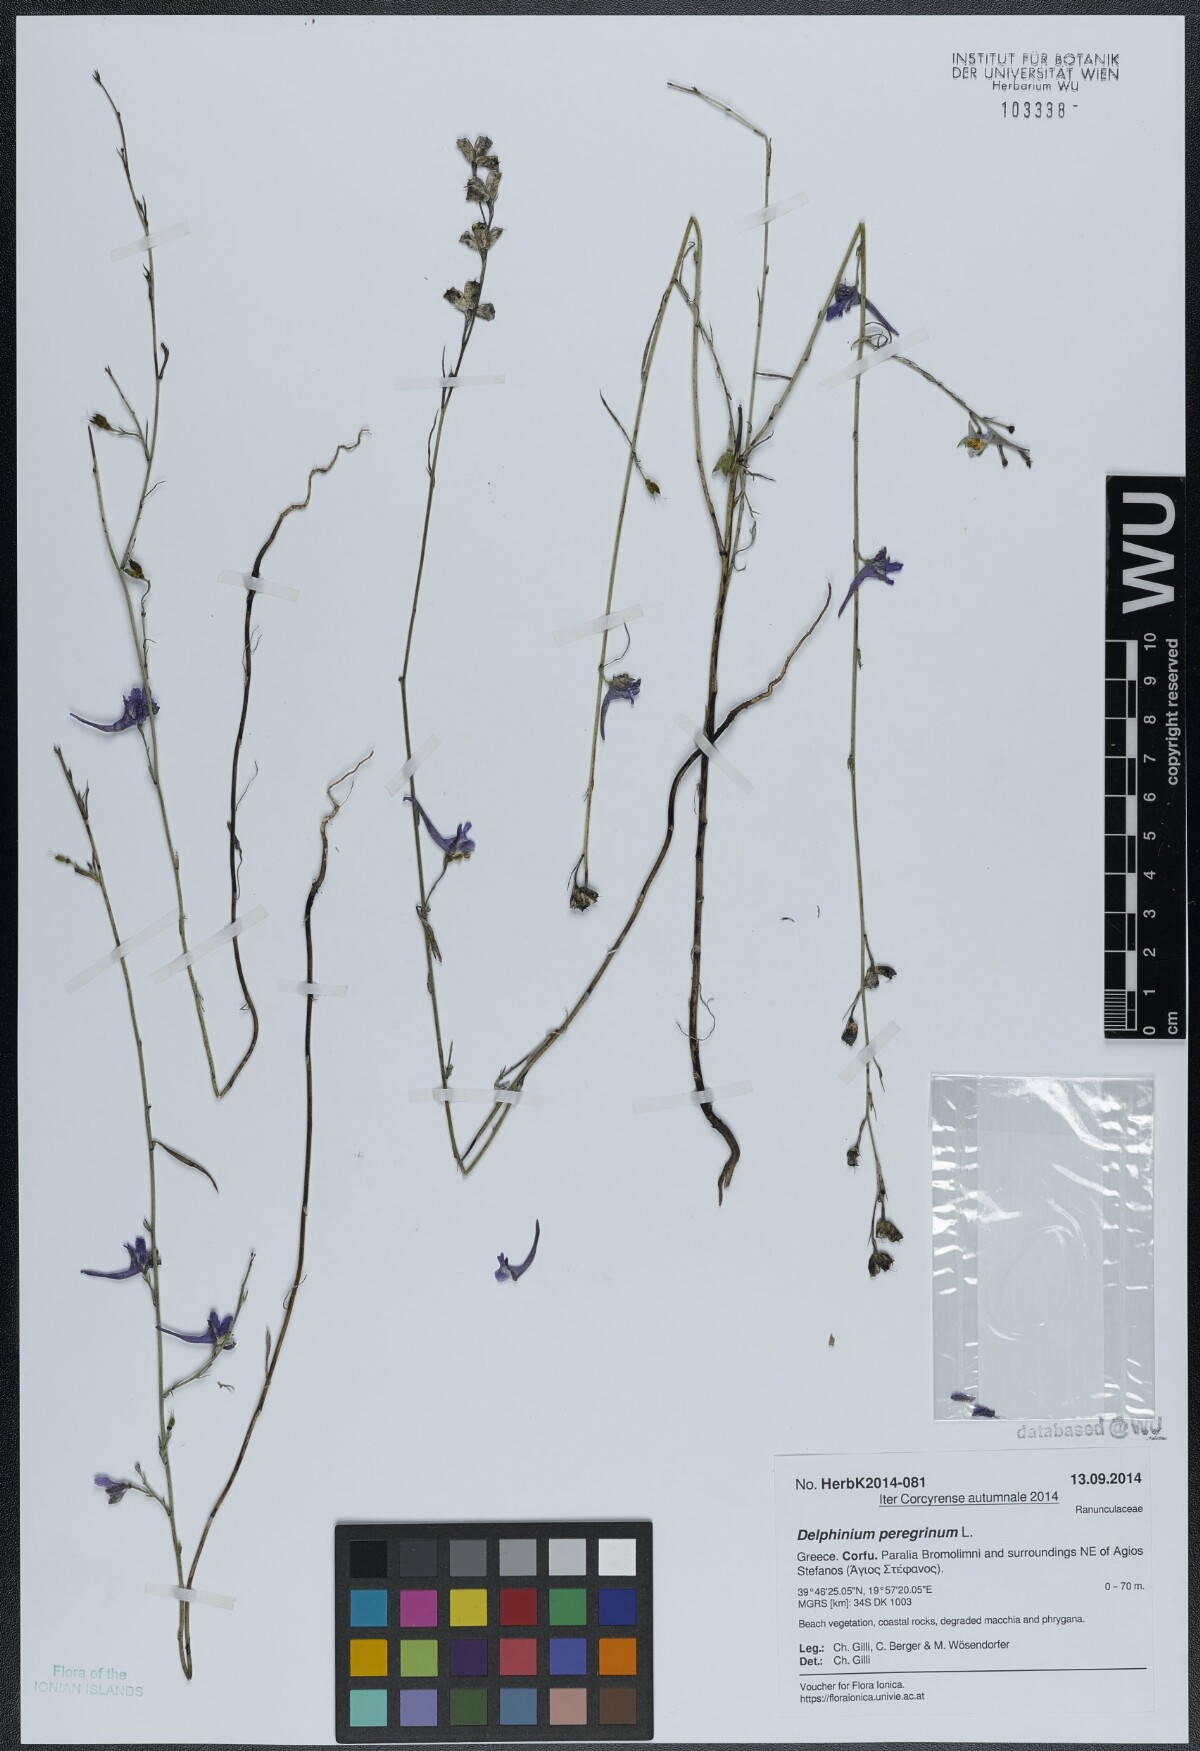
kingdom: Plantae
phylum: Tracheophyta
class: Magnoliopsida
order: Ranunculales
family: Ranunculaceae
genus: Delphinium
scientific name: Delphinium peregrinum
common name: Violet larkspur
